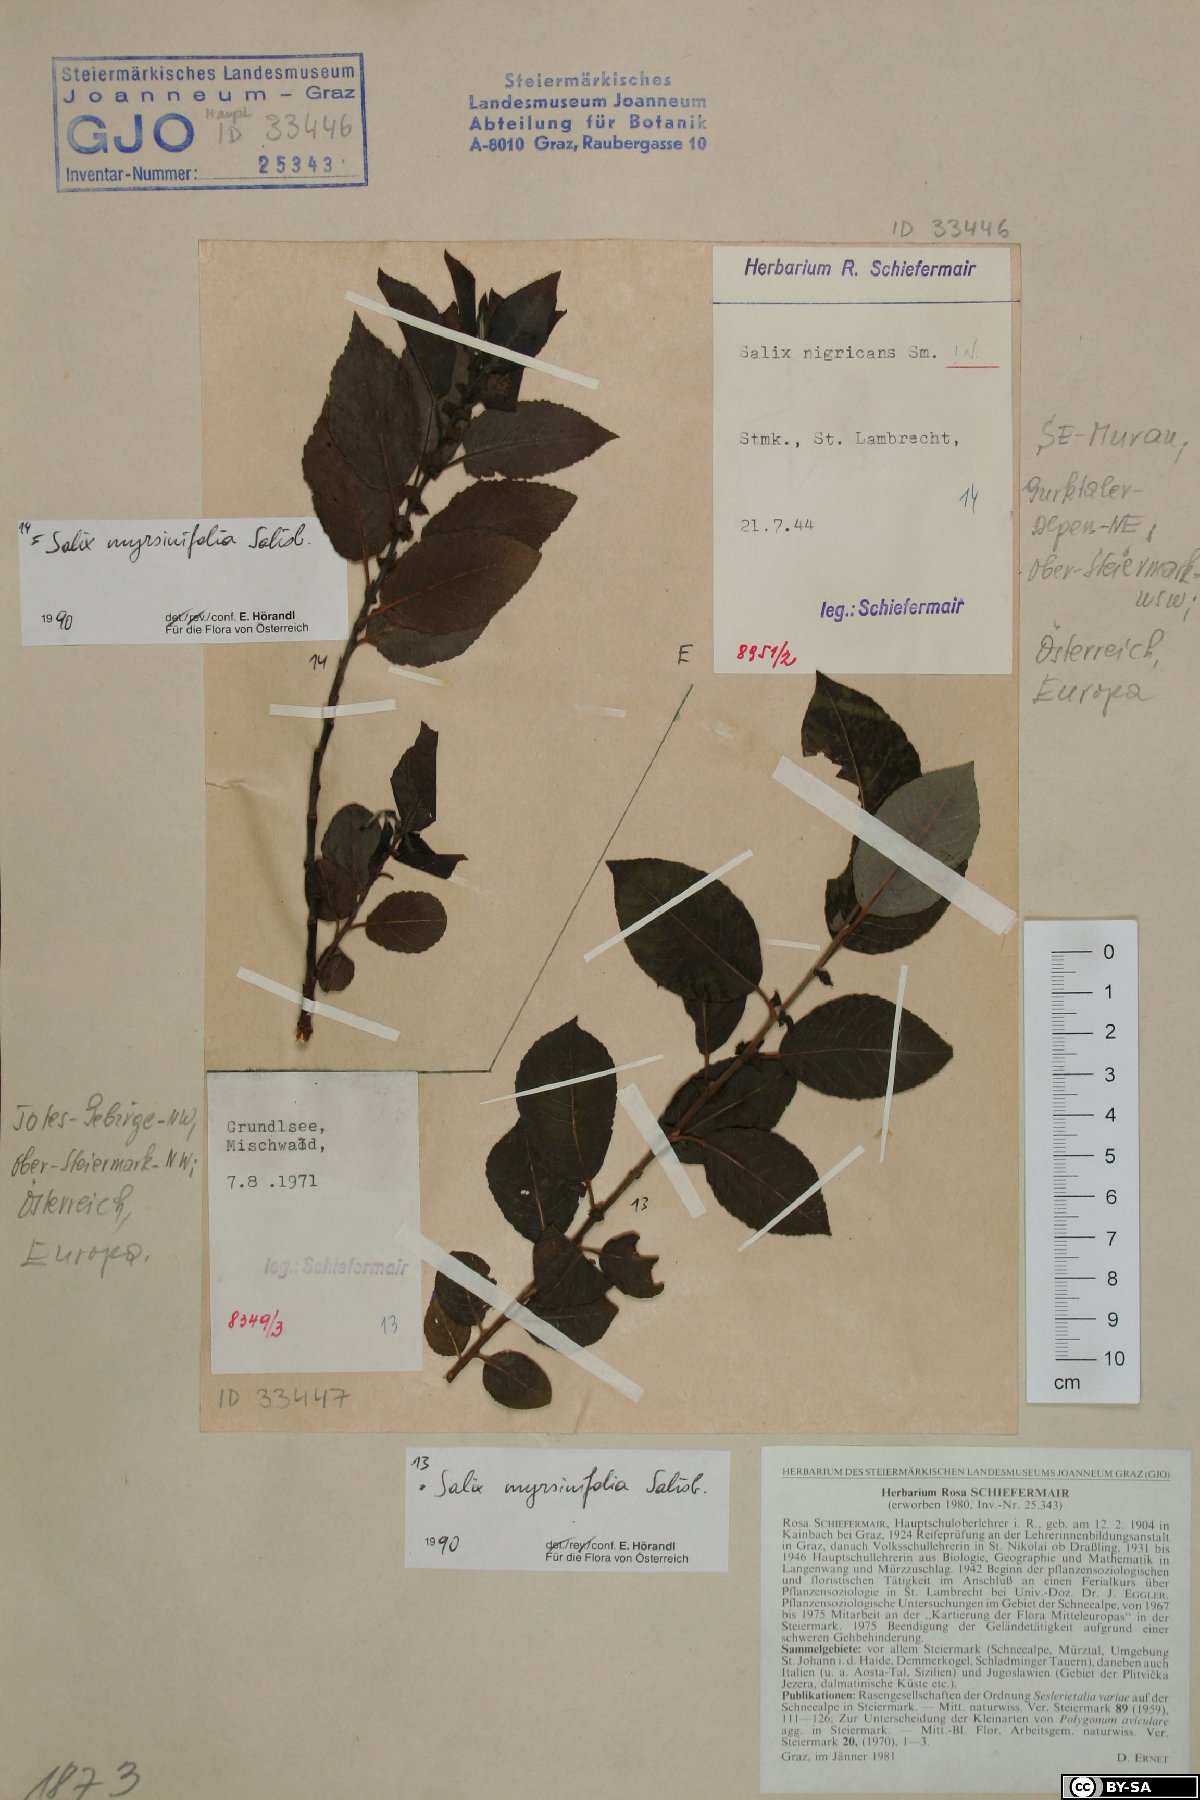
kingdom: Plantae
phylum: Tracheophyta
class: Magnoliopsida
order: Malpighiales
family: Salicaceae
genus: Salix
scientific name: Salix myrsinifolia
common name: Dark-leaved willow
